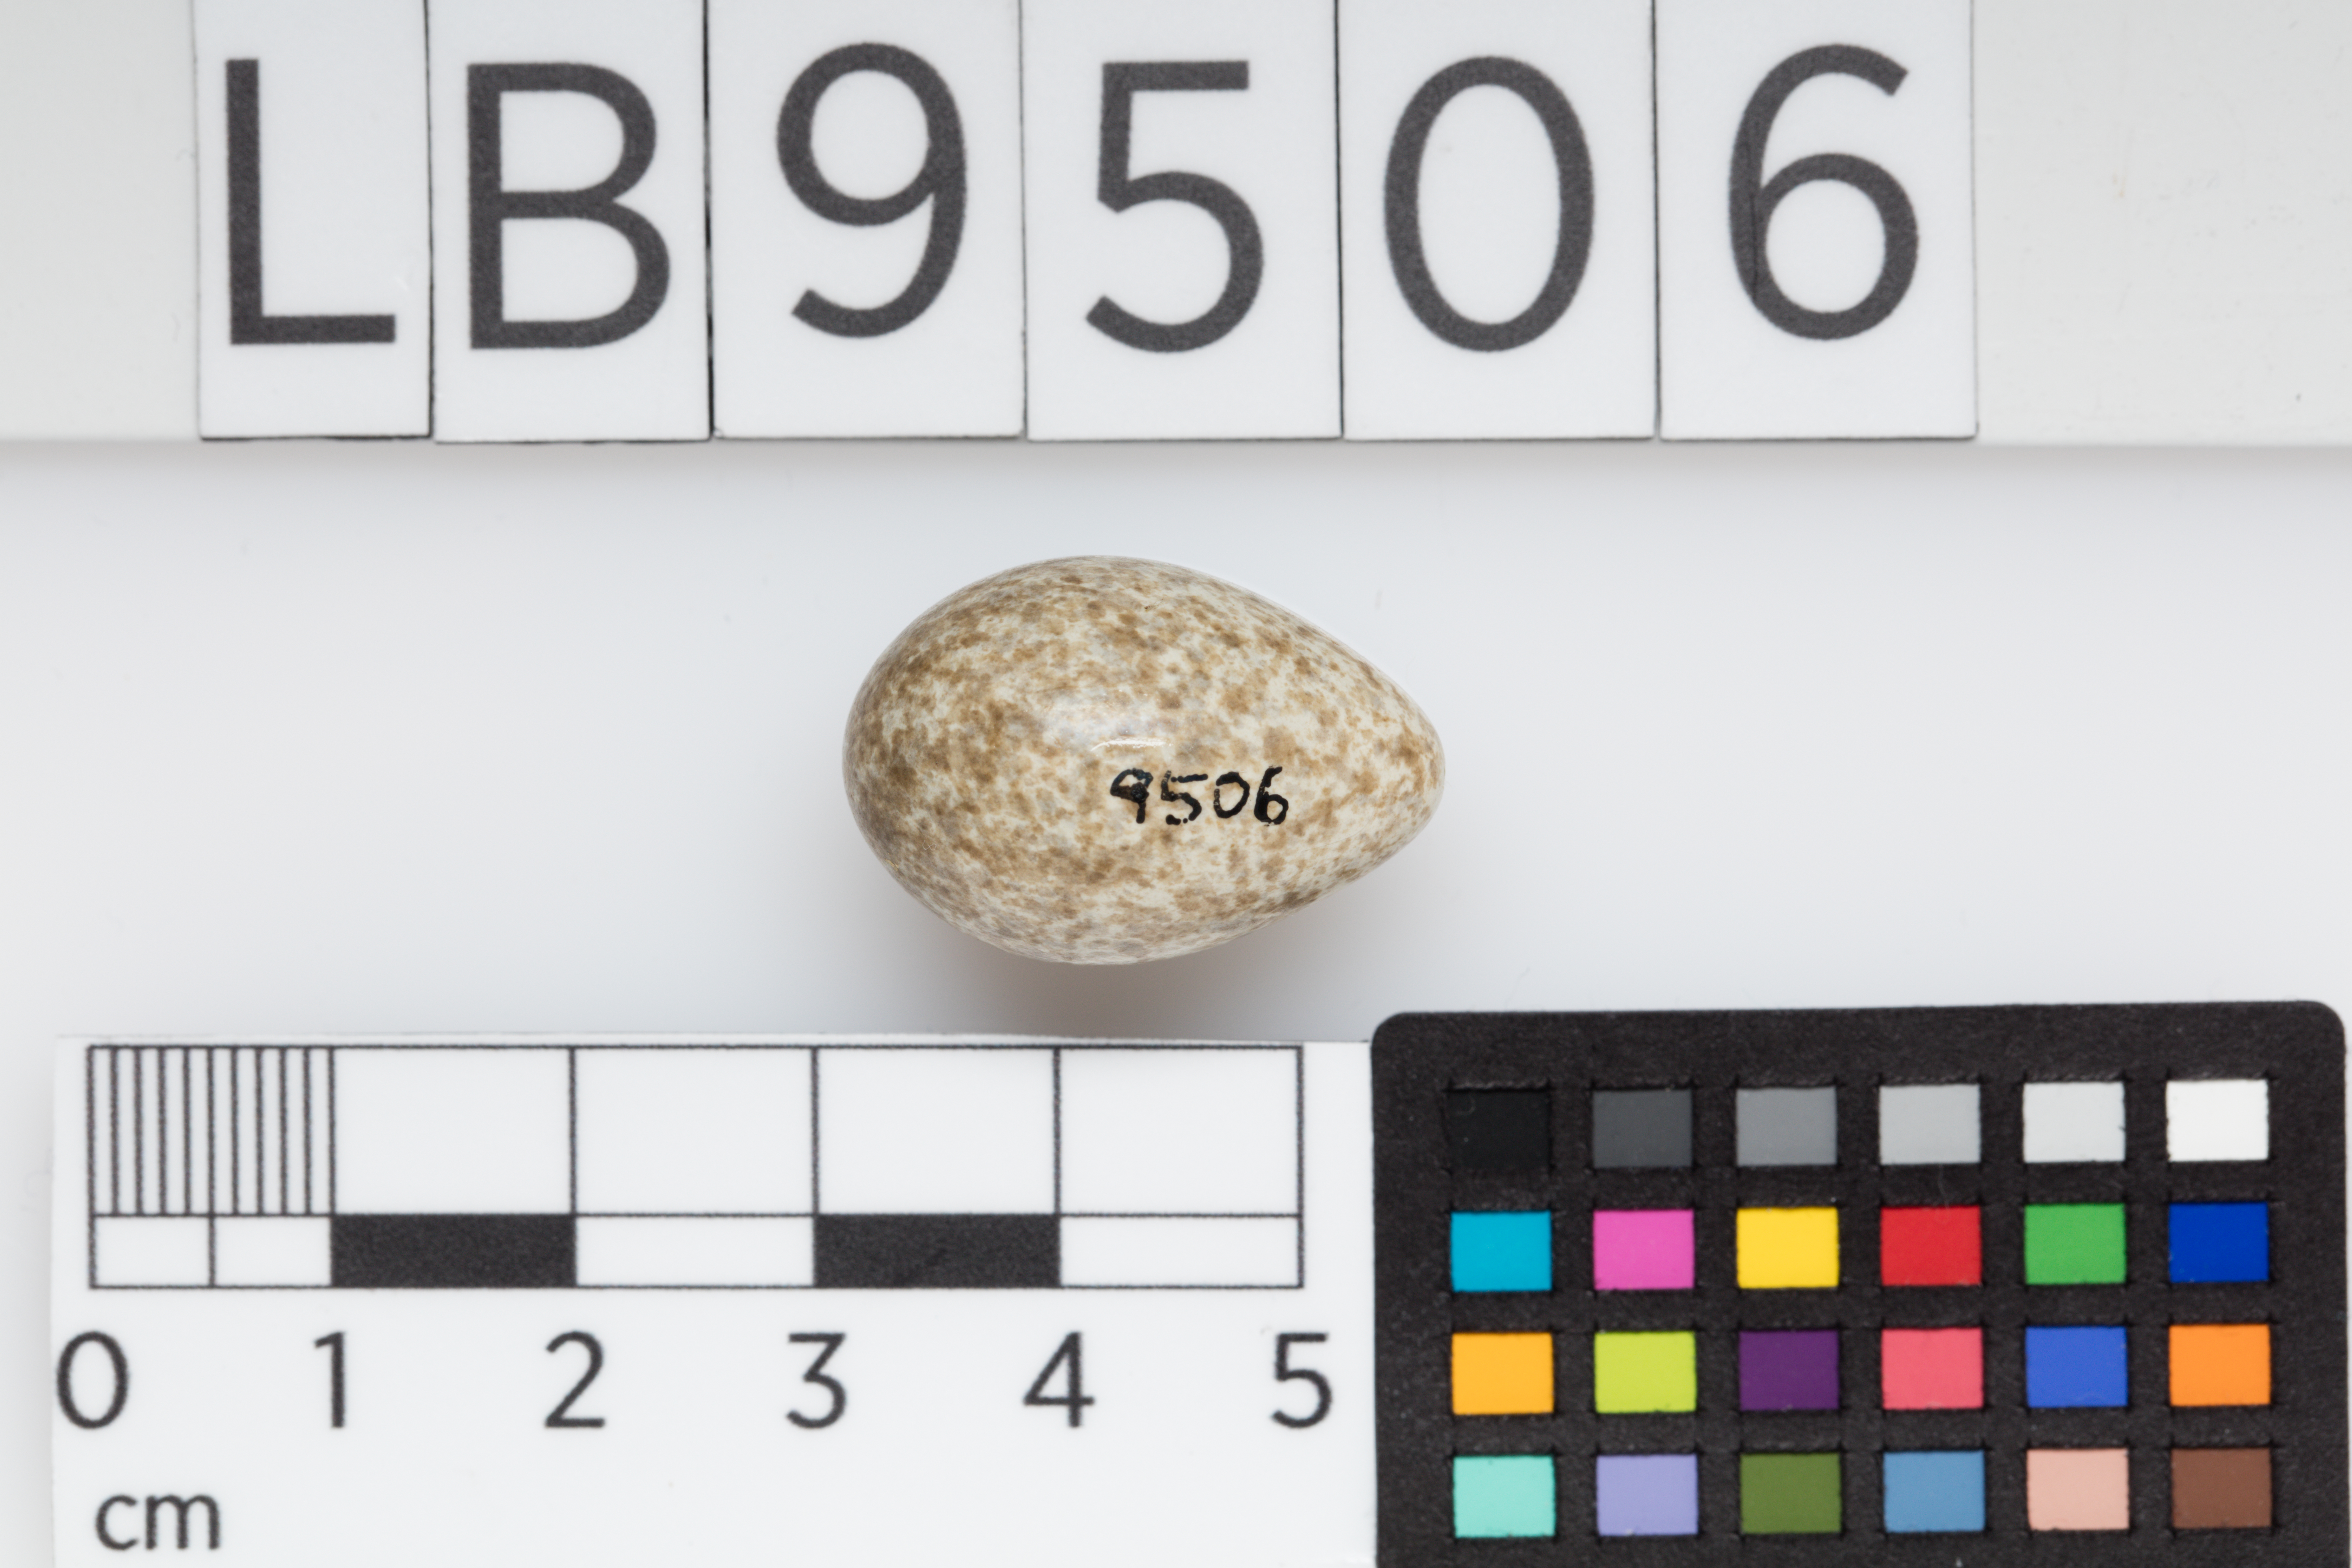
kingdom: Animalia
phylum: Chordata
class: Aves
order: Passeriformes
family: Alaudidae
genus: Alauda
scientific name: Alauda arvensis
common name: Eurasian skylark
